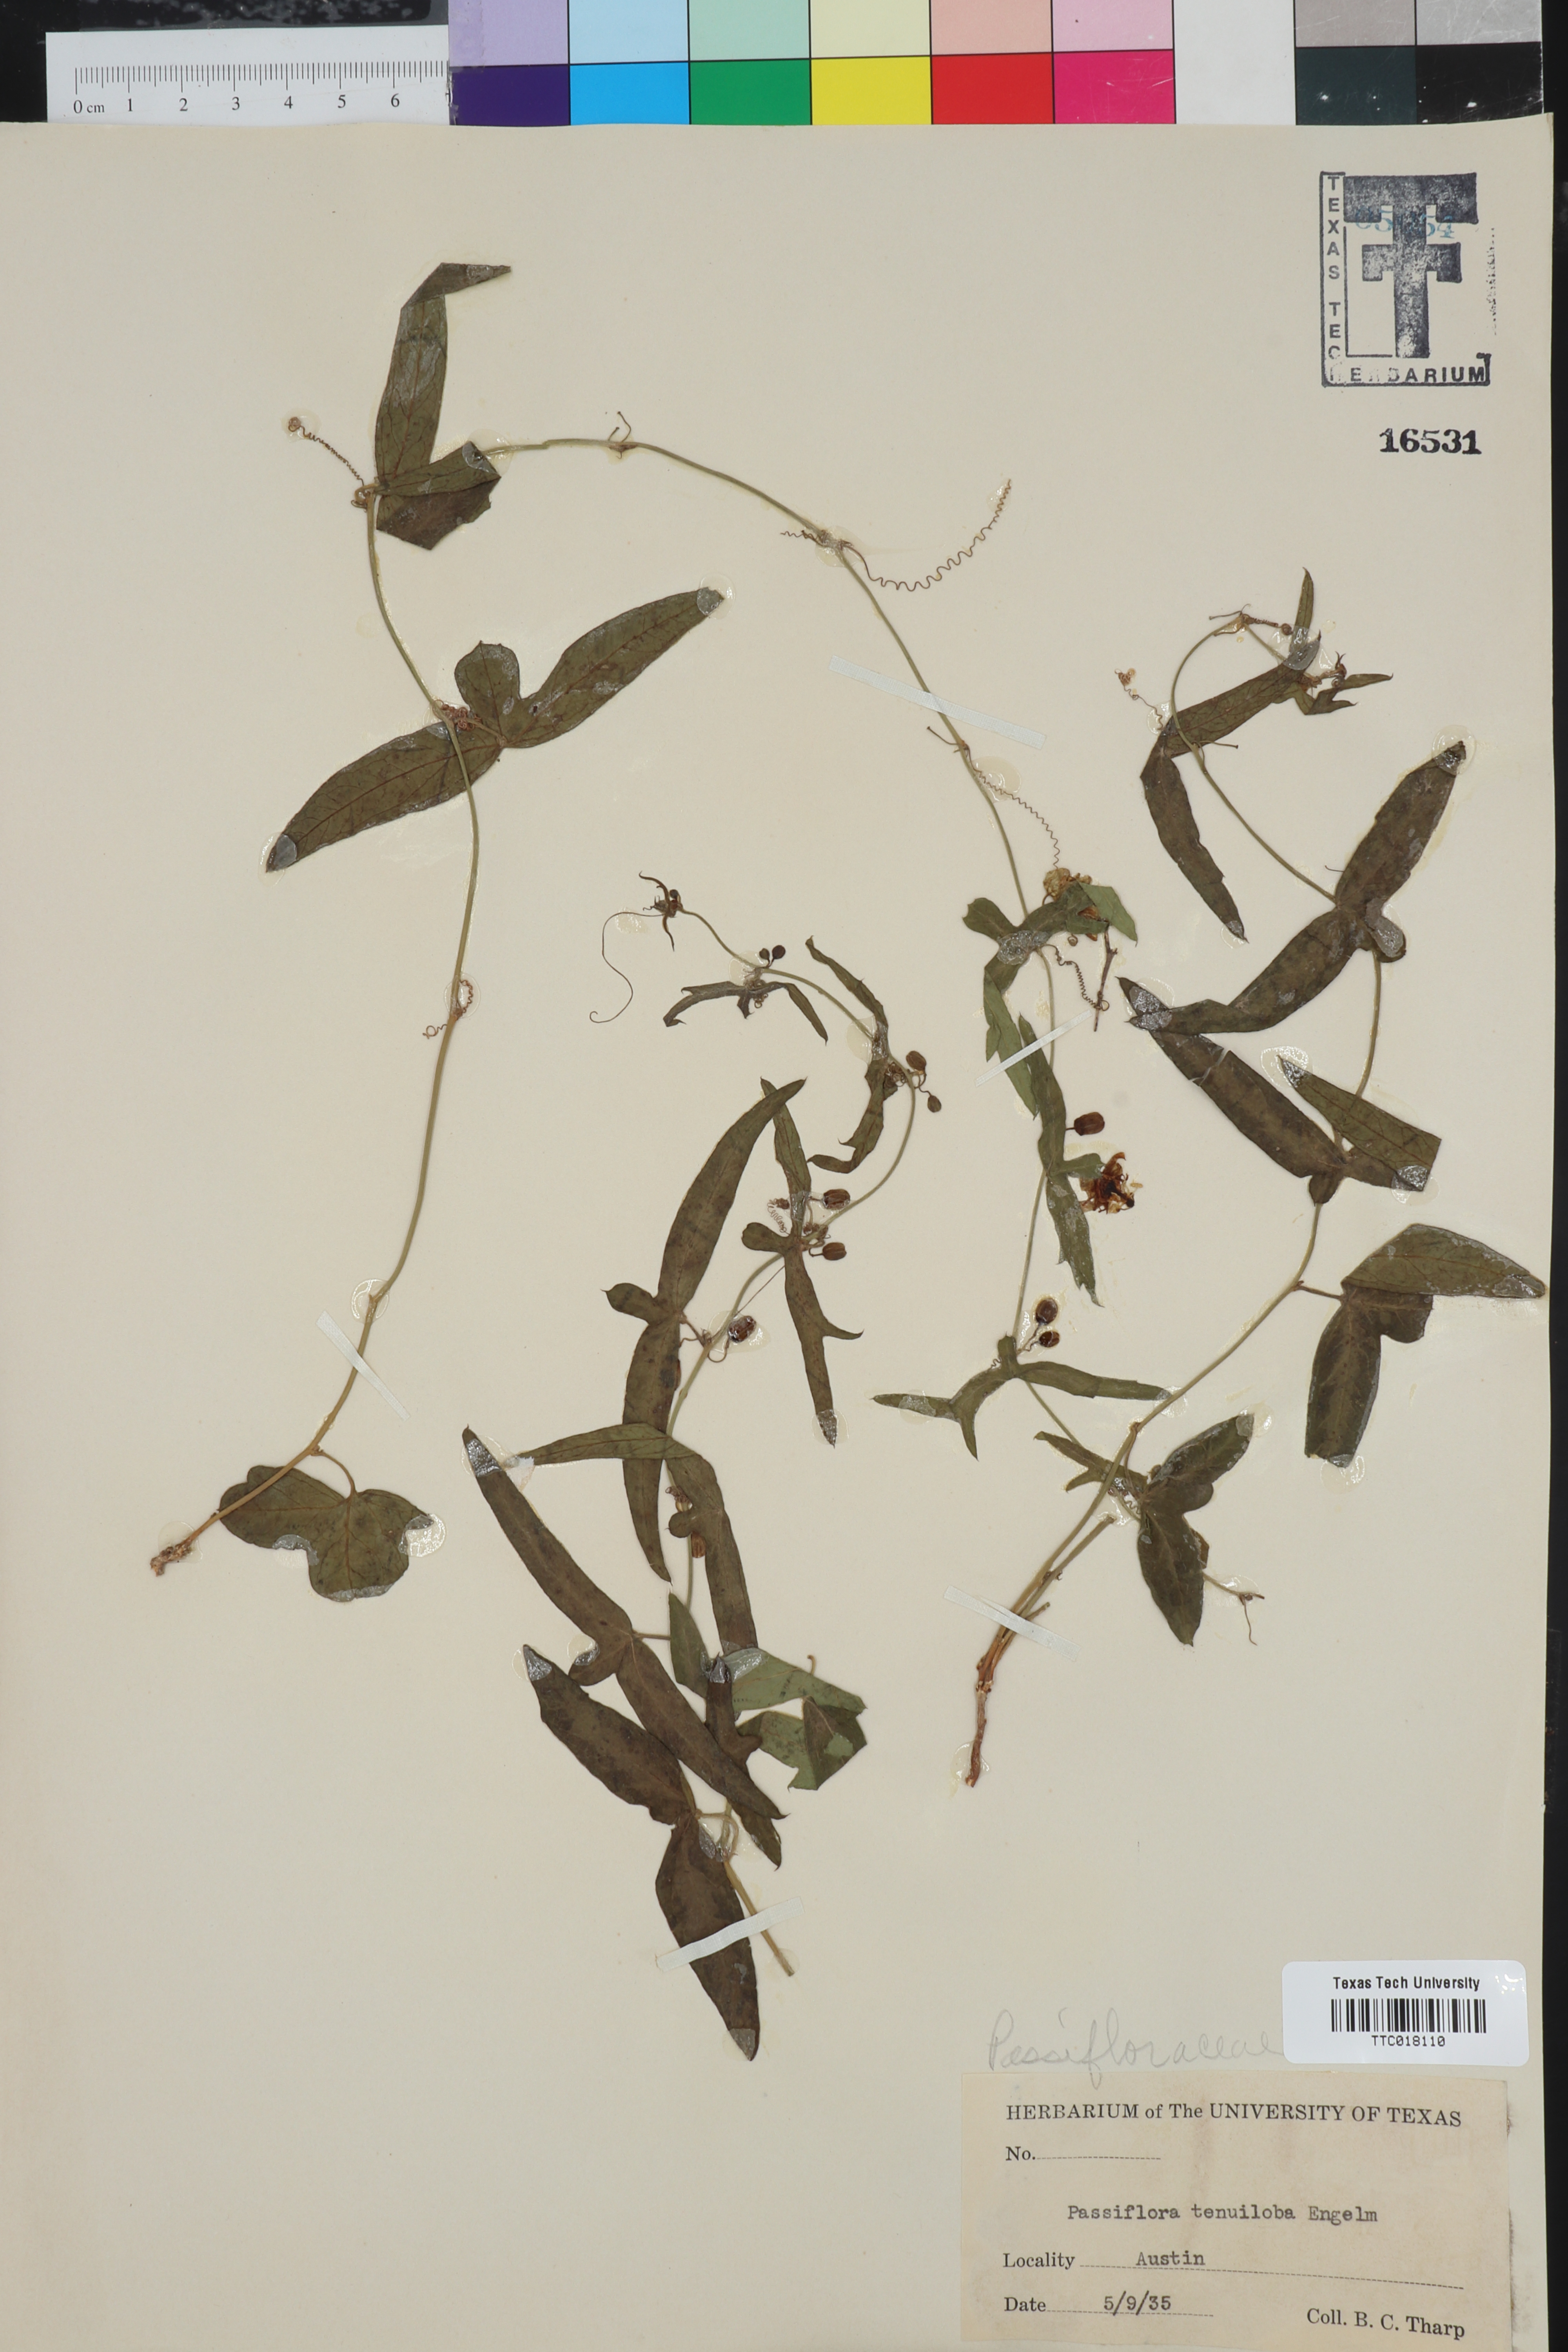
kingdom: Plantae
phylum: Tracheophyta
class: Magnoliopsida
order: Malpighiales
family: Passifloraceae
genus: Passiflora
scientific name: Passiflora tenuiloba
